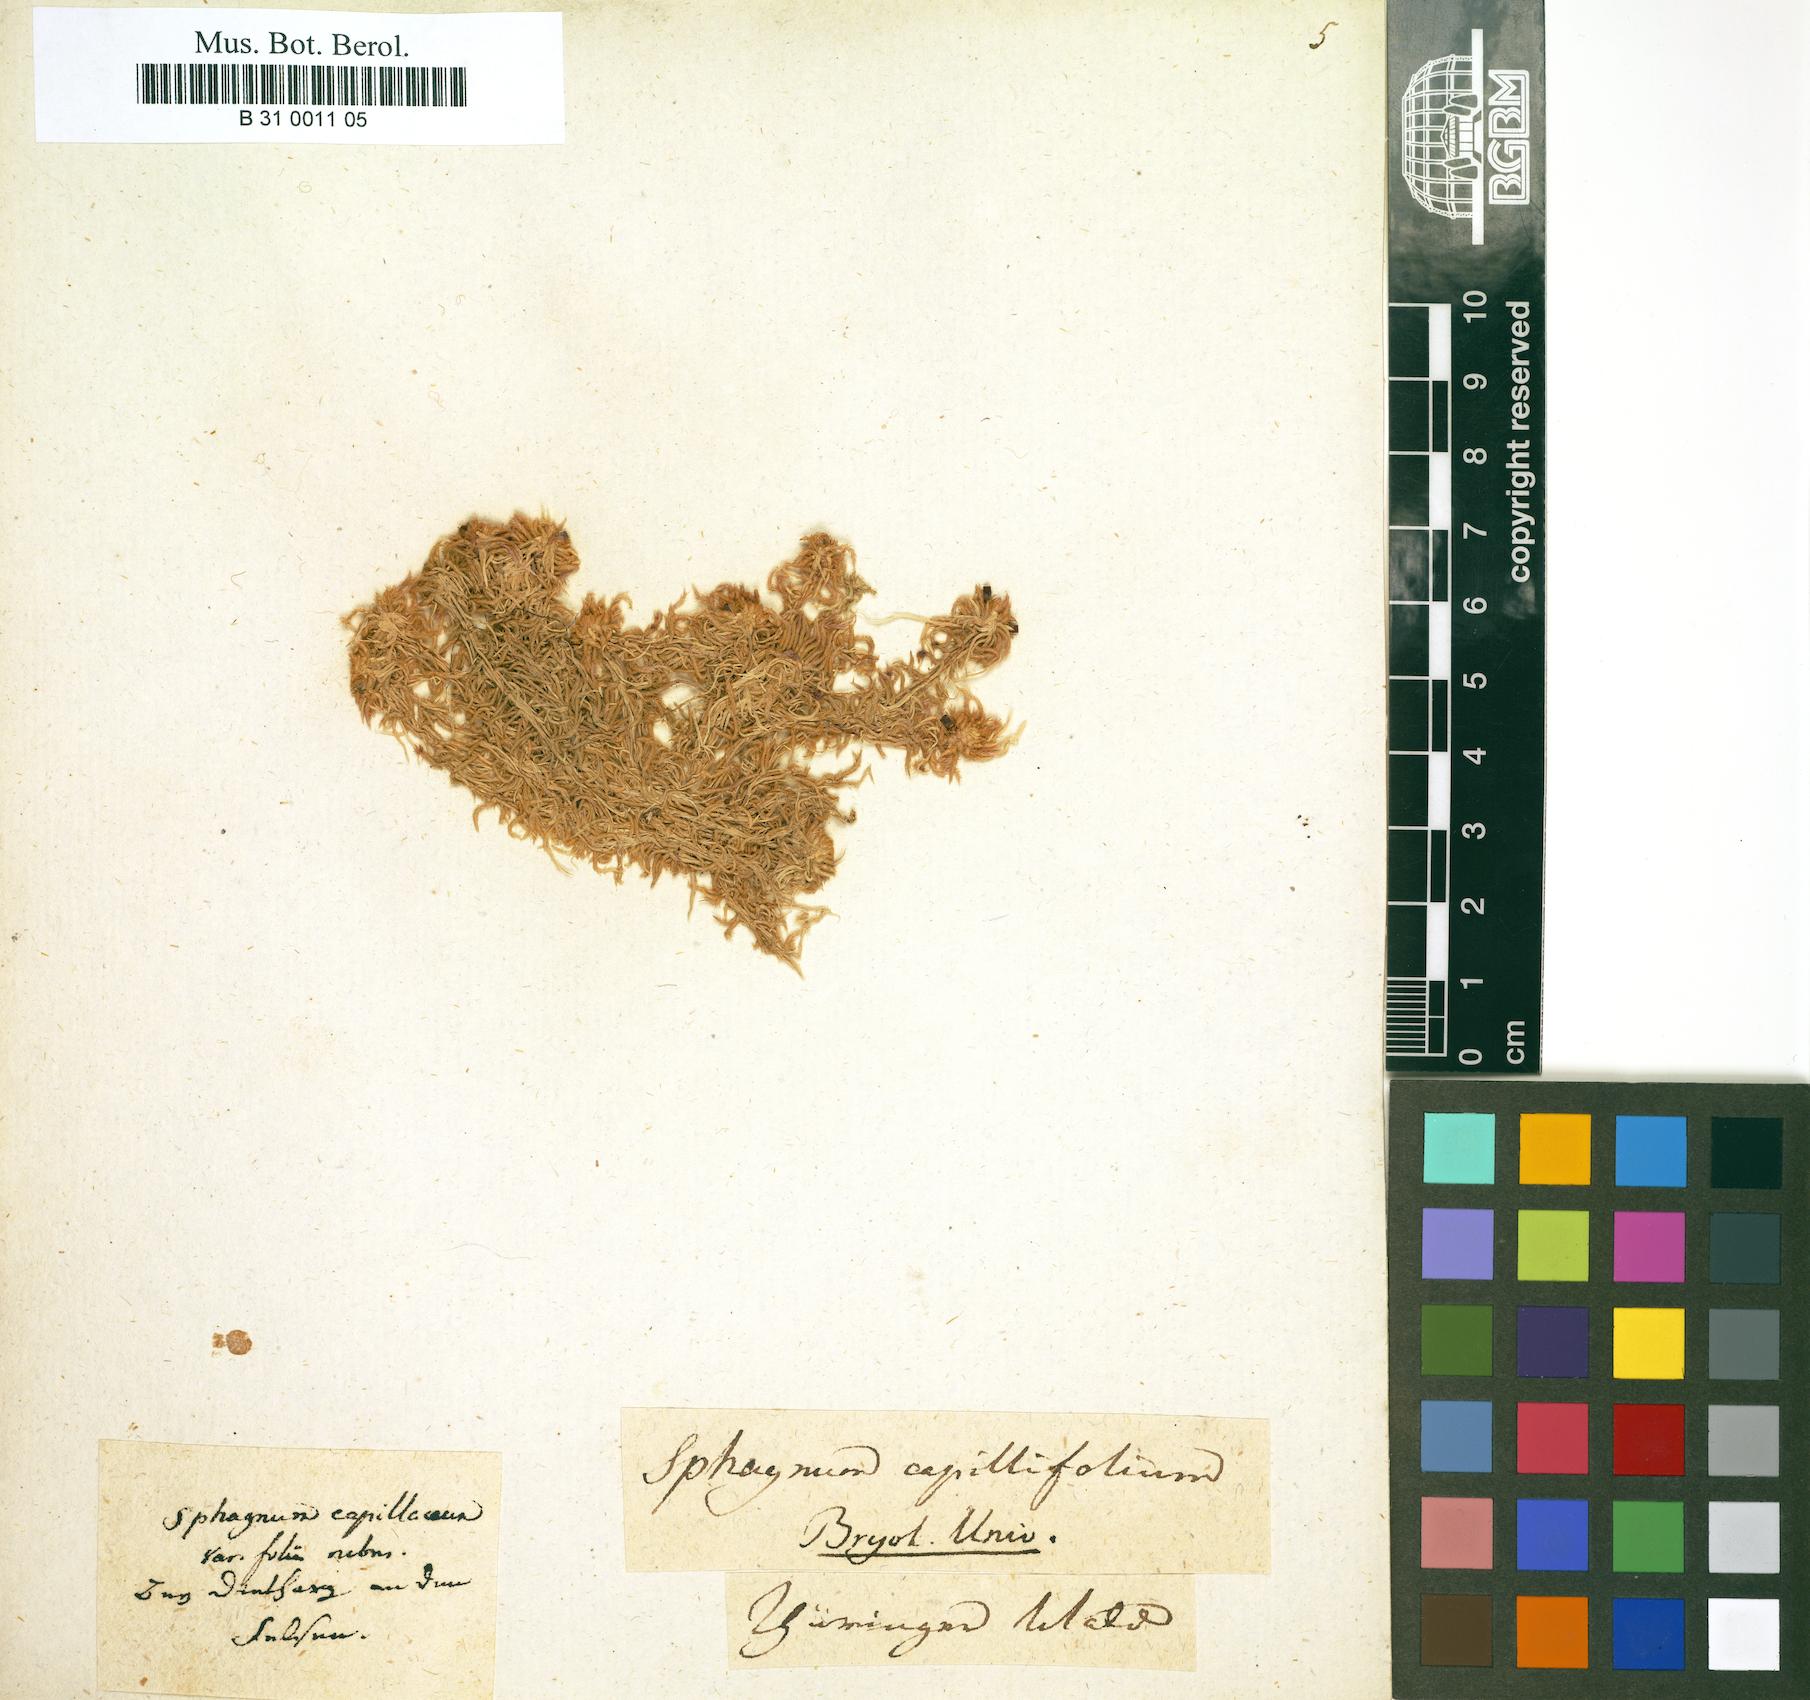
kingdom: Plantae
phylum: Bryophyta
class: Sphagnopsida
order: Sphagnales
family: Sphagnaceae
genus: Sphagnum
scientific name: Sphagnum capillifolium
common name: Small red peat moss
